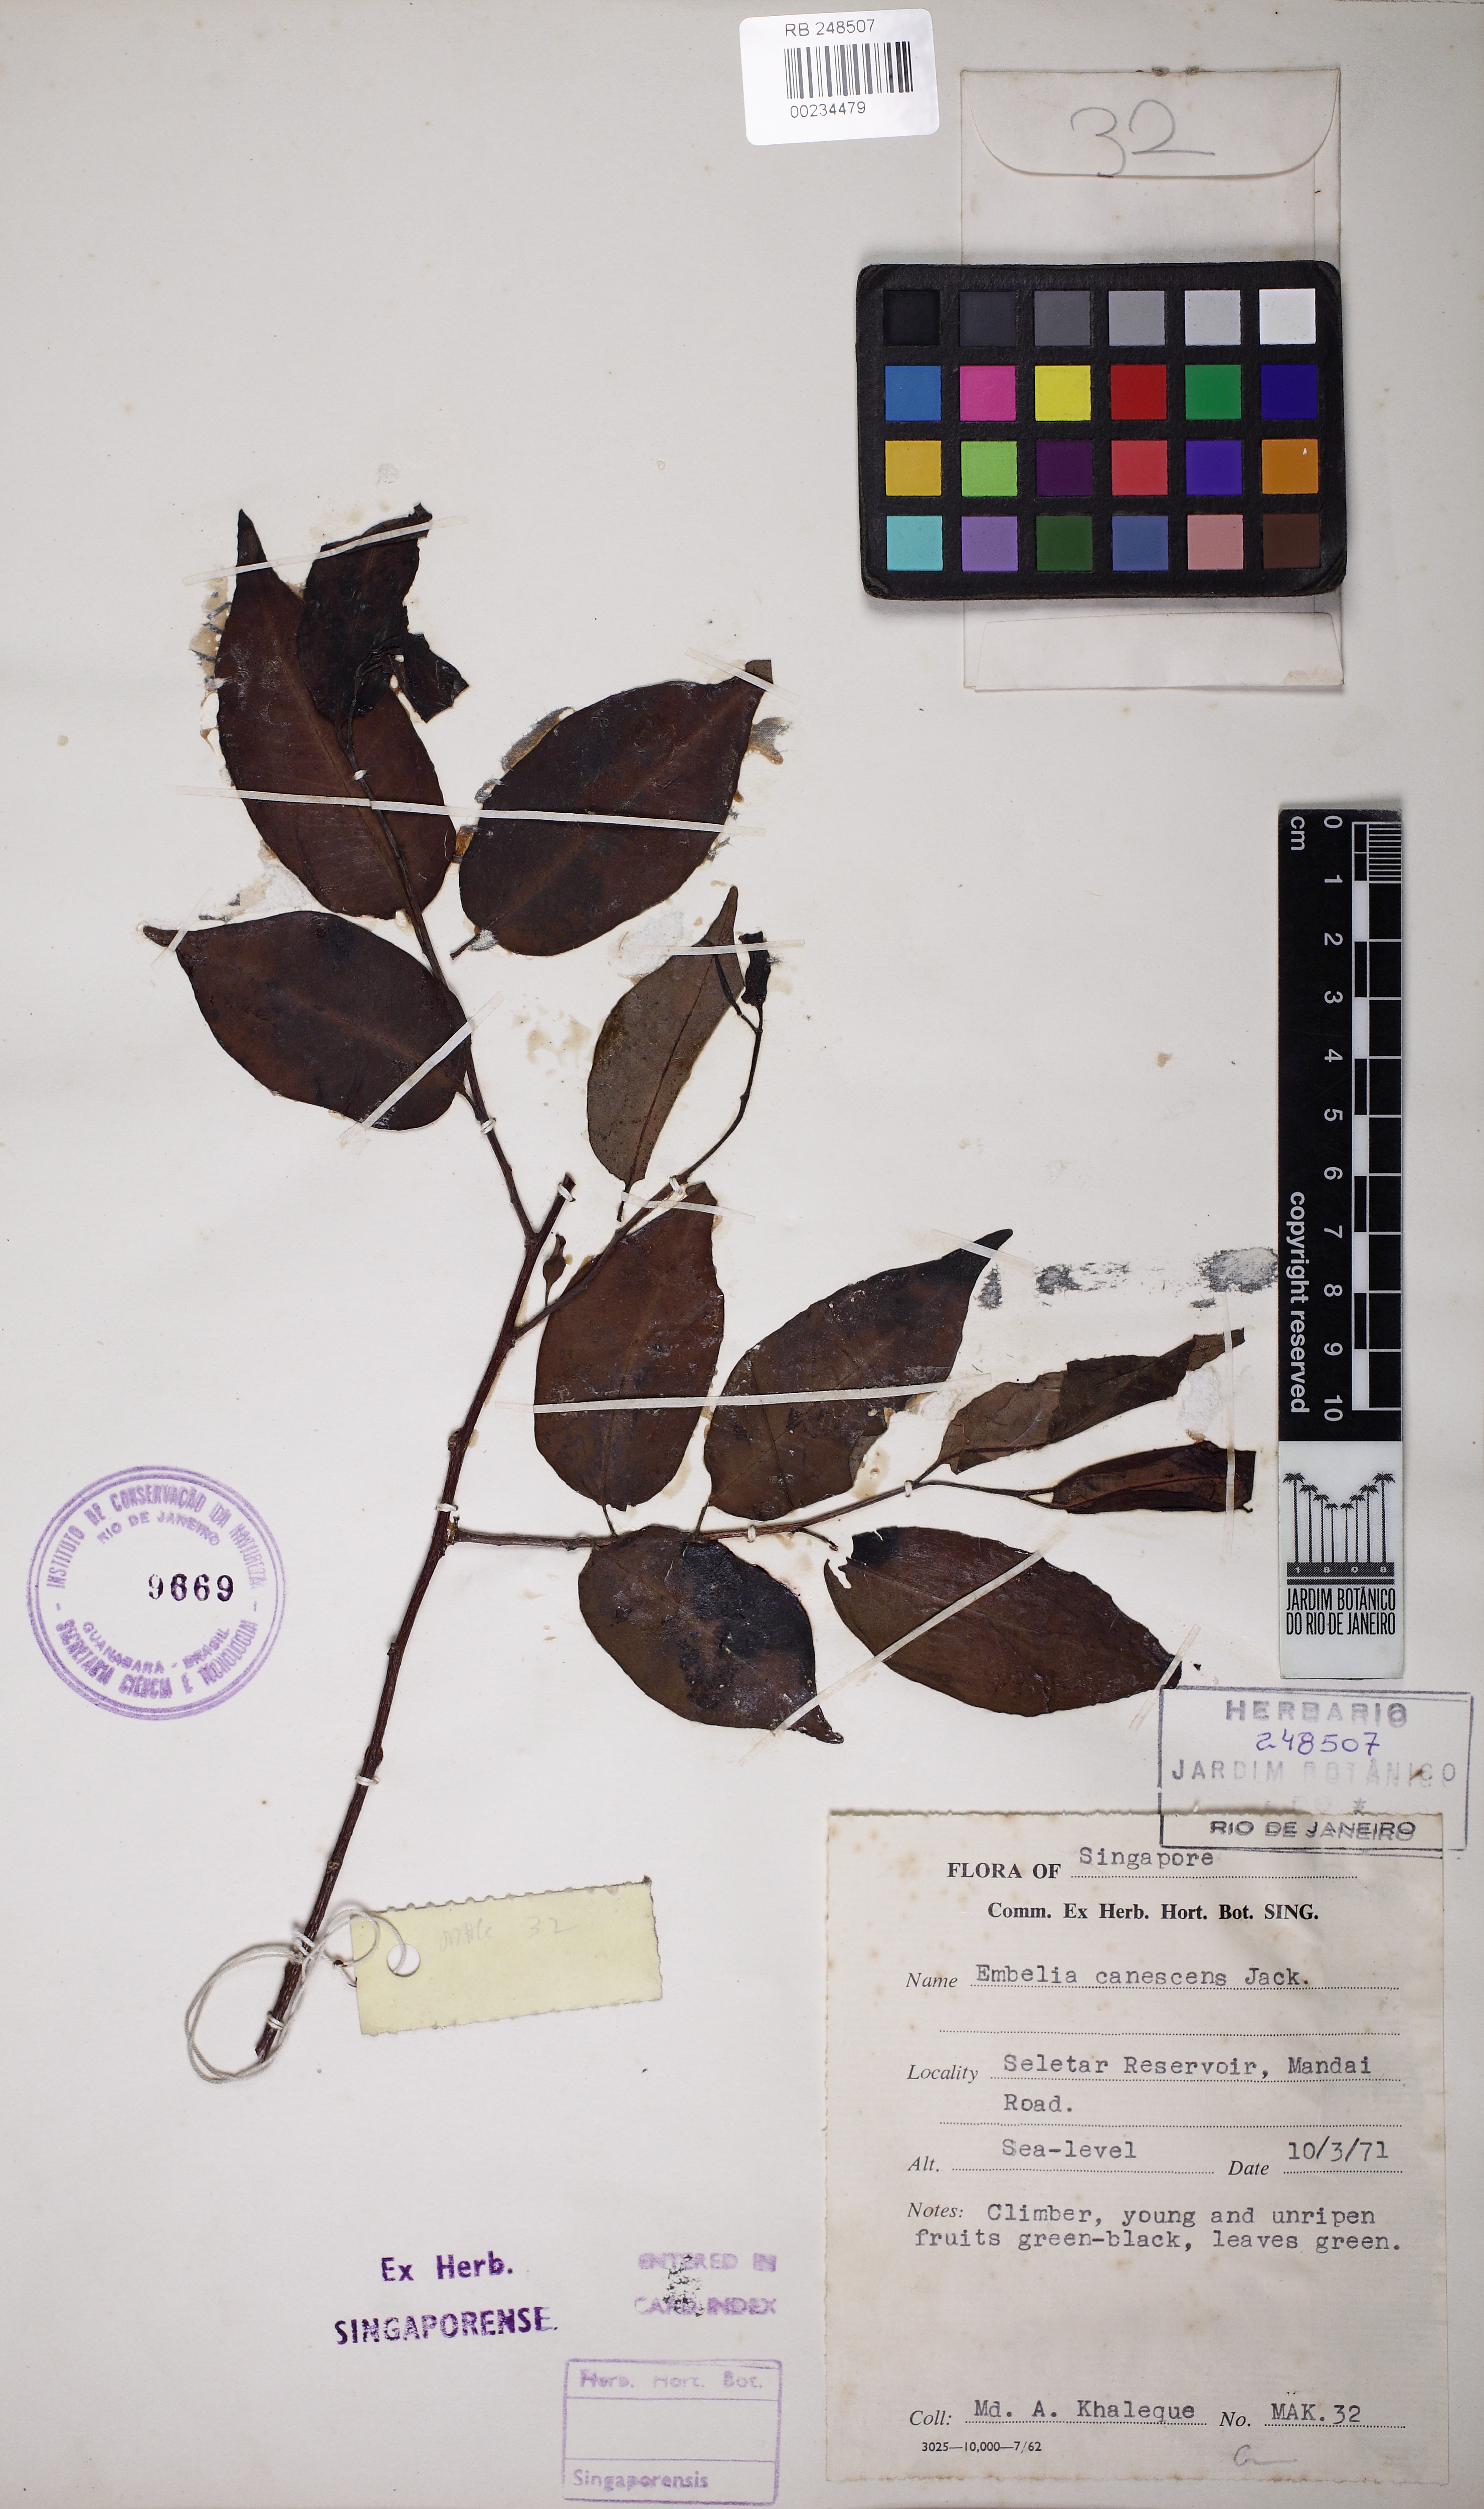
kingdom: Plantae
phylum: Tracheophyta
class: Magnoliopsida
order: Ericales
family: Primulaceae
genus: Embelia
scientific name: Embelia canescens
